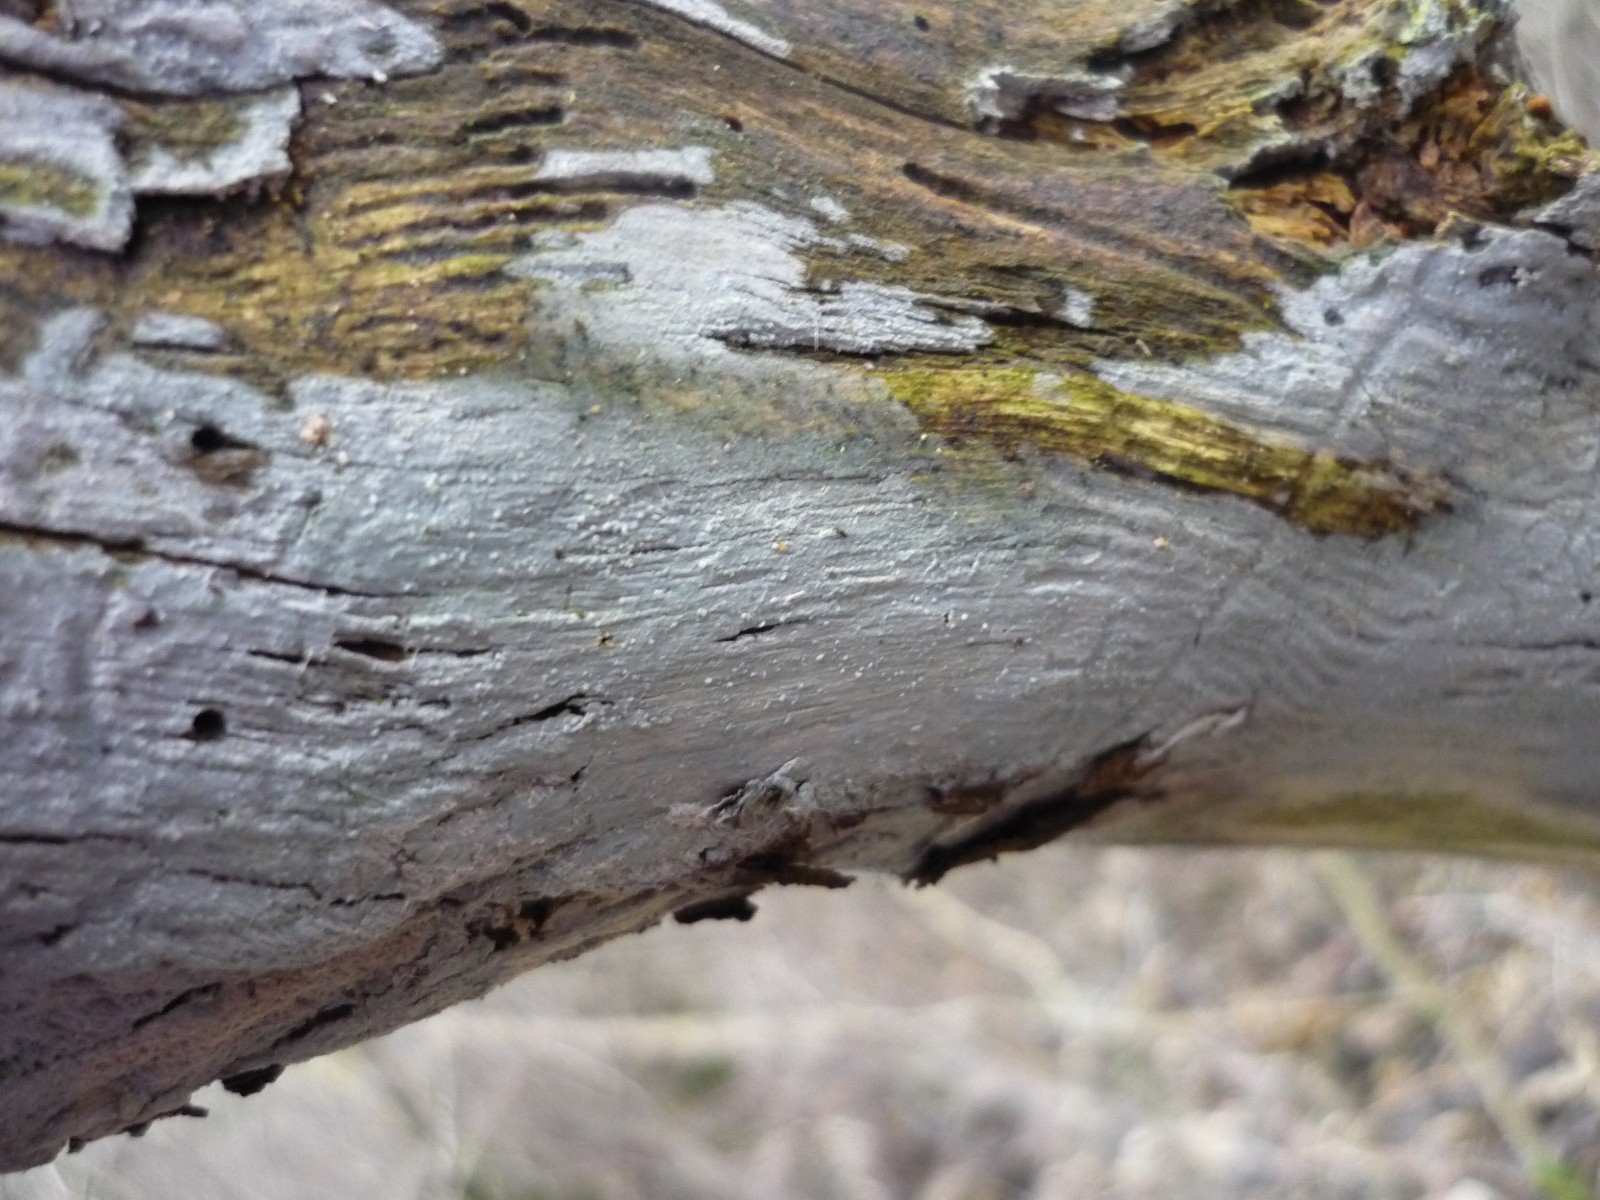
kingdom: Fungi
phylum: Basidiomycota
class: Agaricomycetes
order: Corticiales
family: Corticiaceae
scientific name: Corticiaceae
